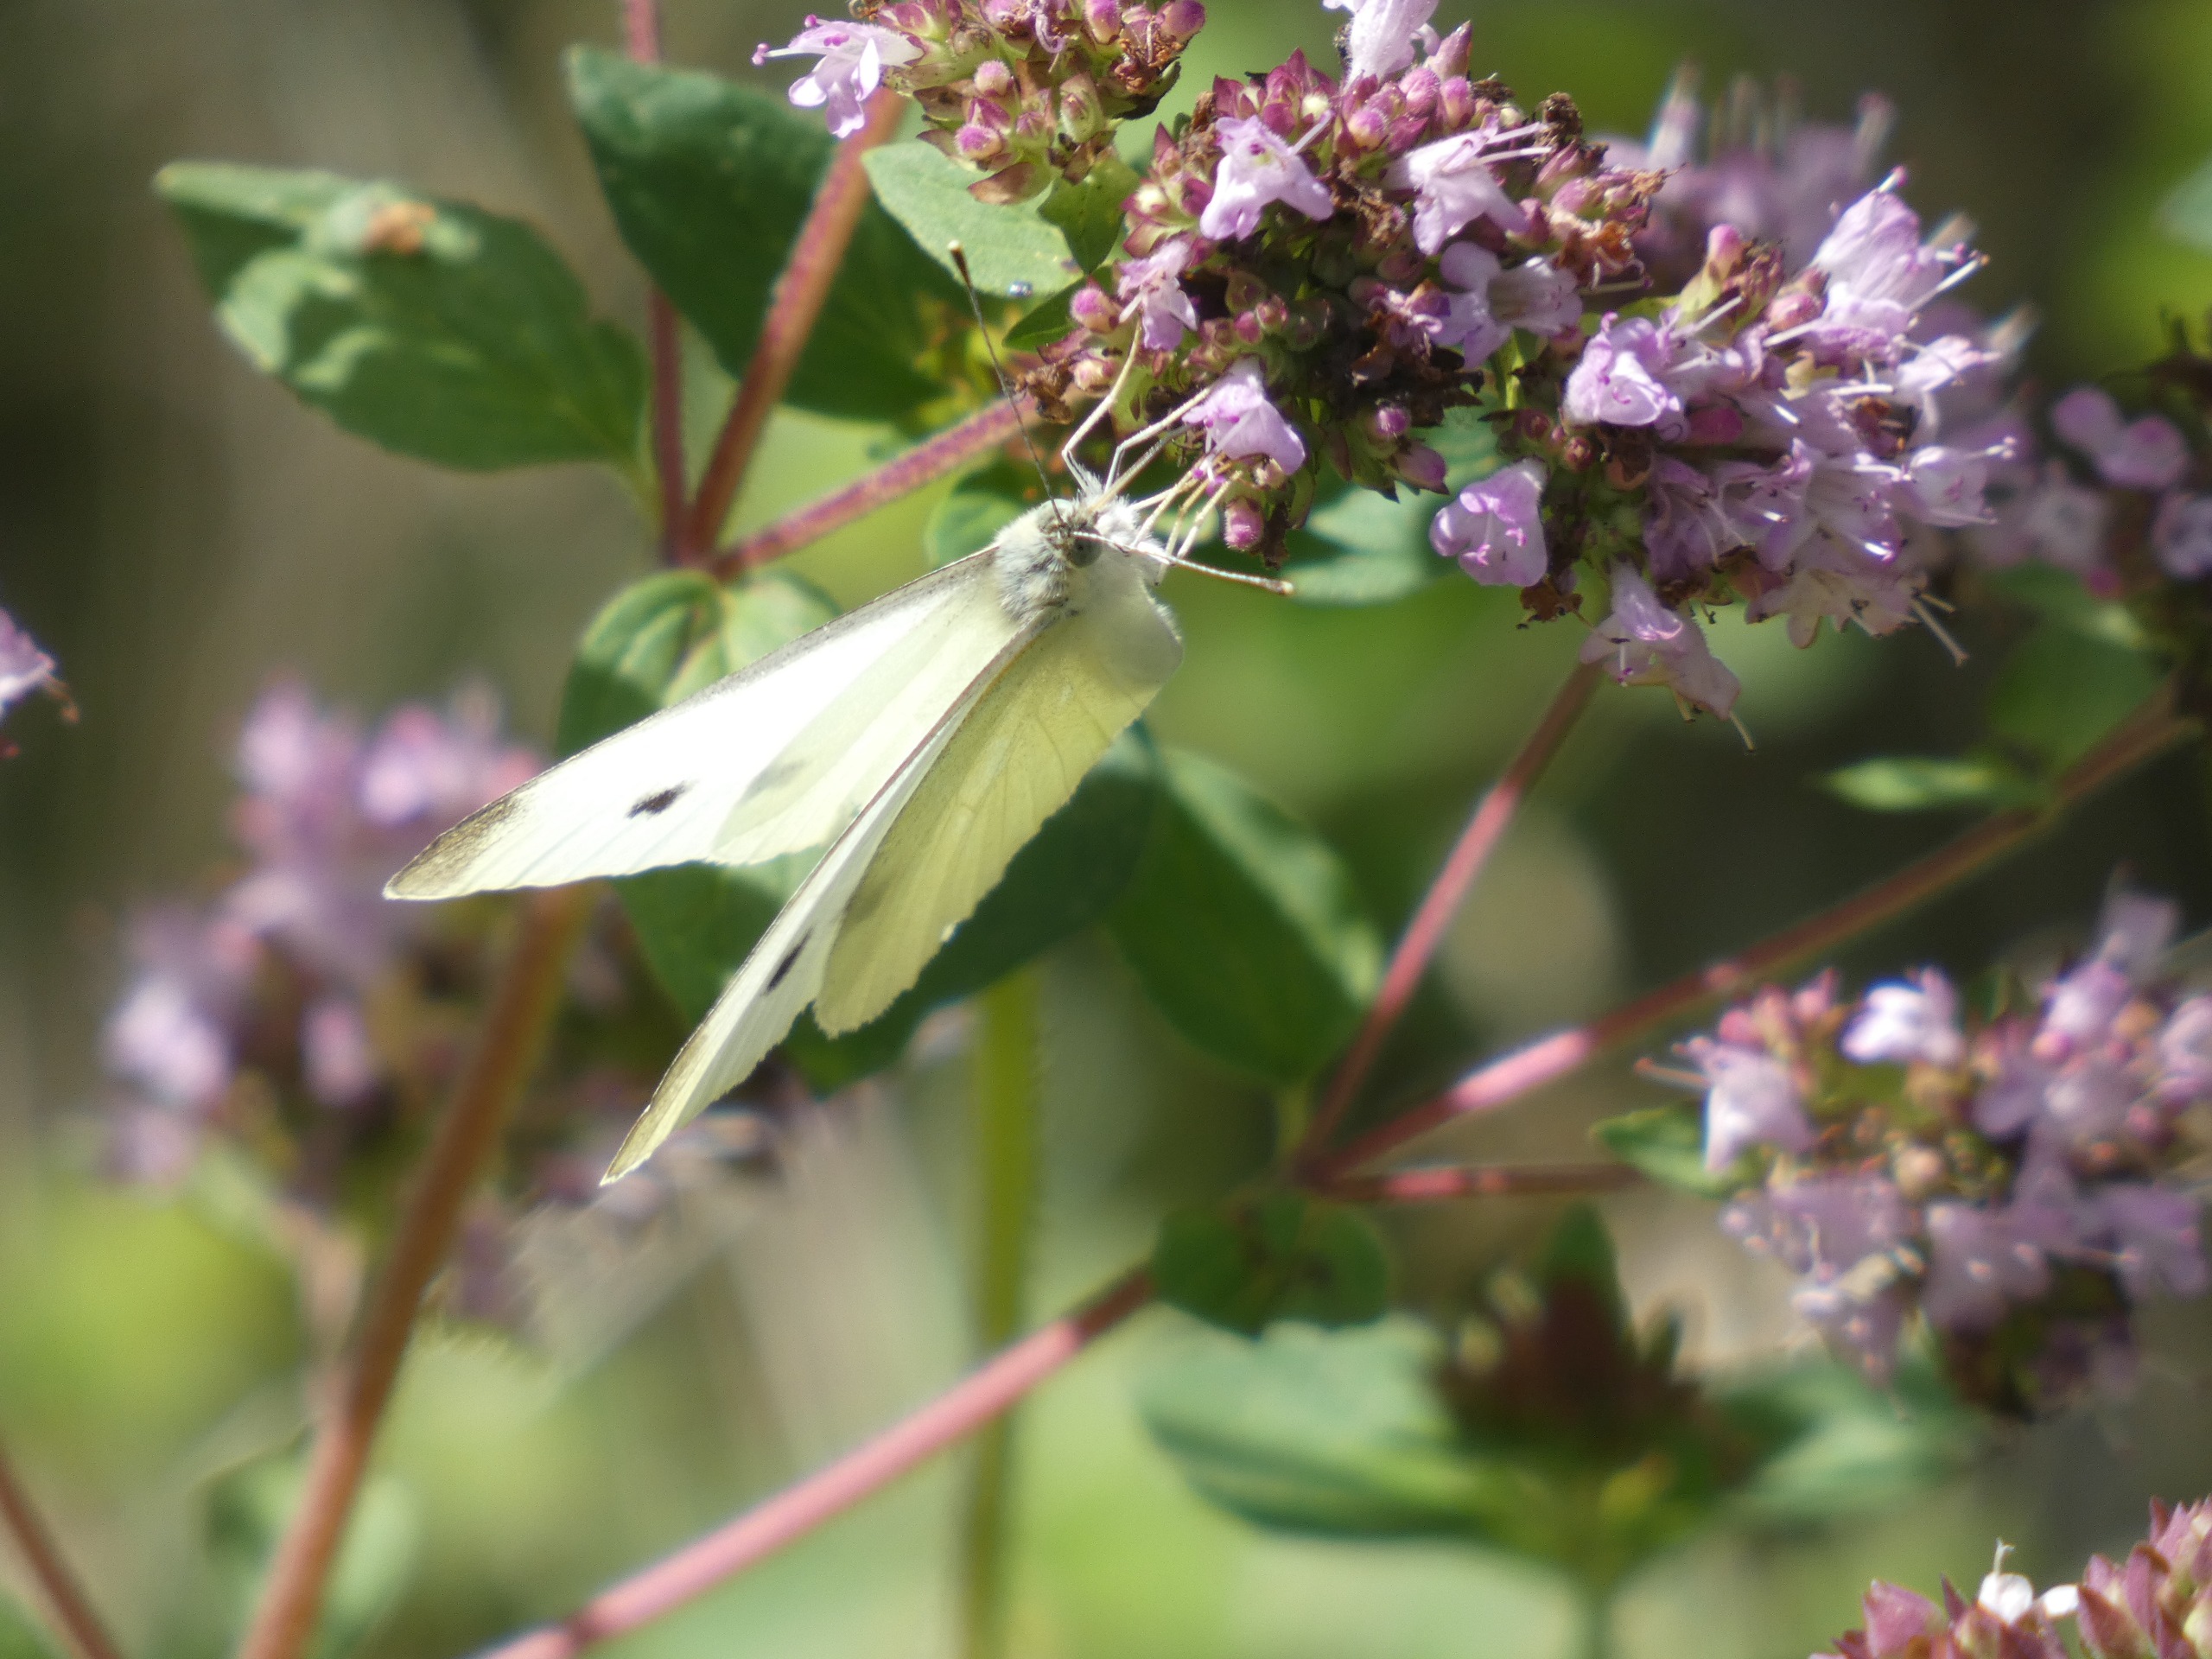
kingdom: Animalia
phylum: Arthropoda
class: Insecta
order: Lepidoptera
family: Pieridae
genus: Pieris
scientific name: Pieris rapae
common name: Lille kålsommerfugl
